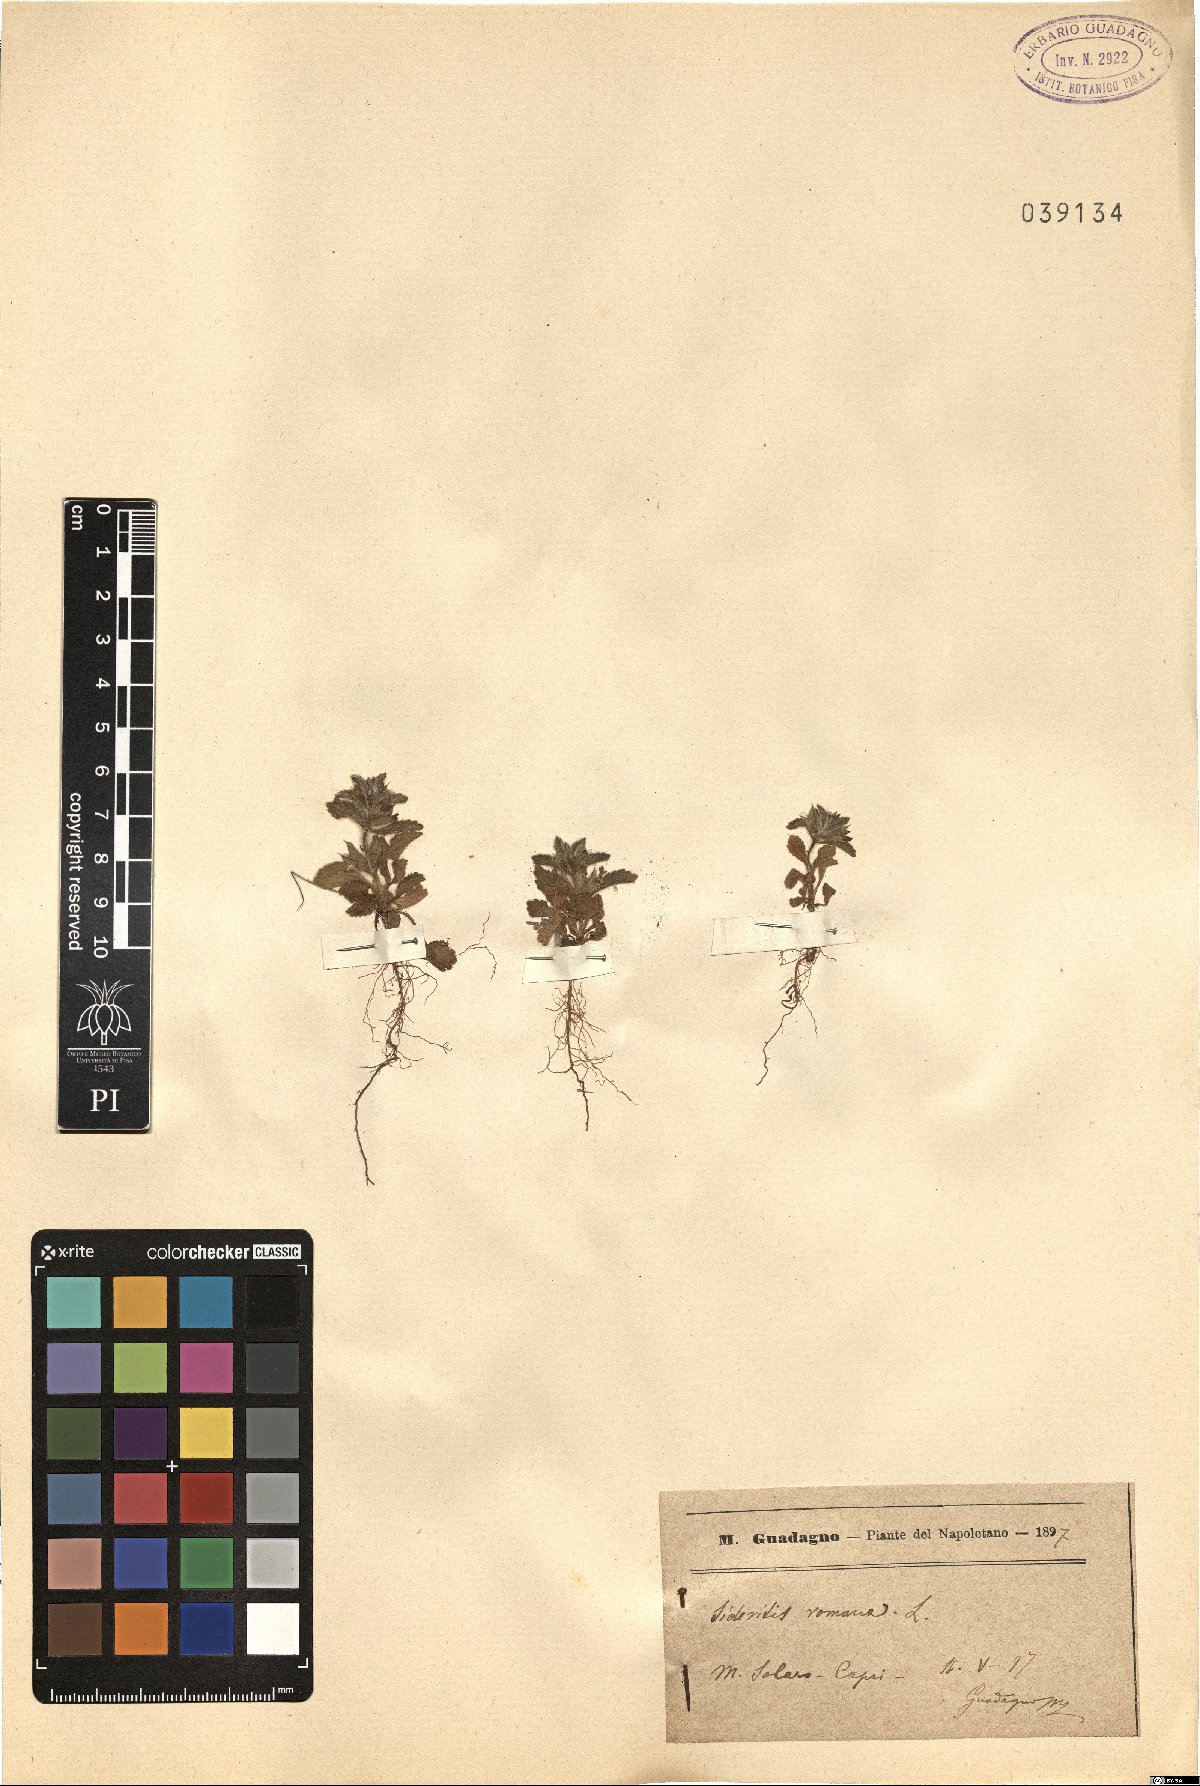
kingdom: Plantae
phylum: Tracheophyta
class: Magnoliopsida
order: Lamiales
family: Lamiaceae
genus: Sideritis
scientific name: Sideritis romana
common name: Simplebeak ironwort
